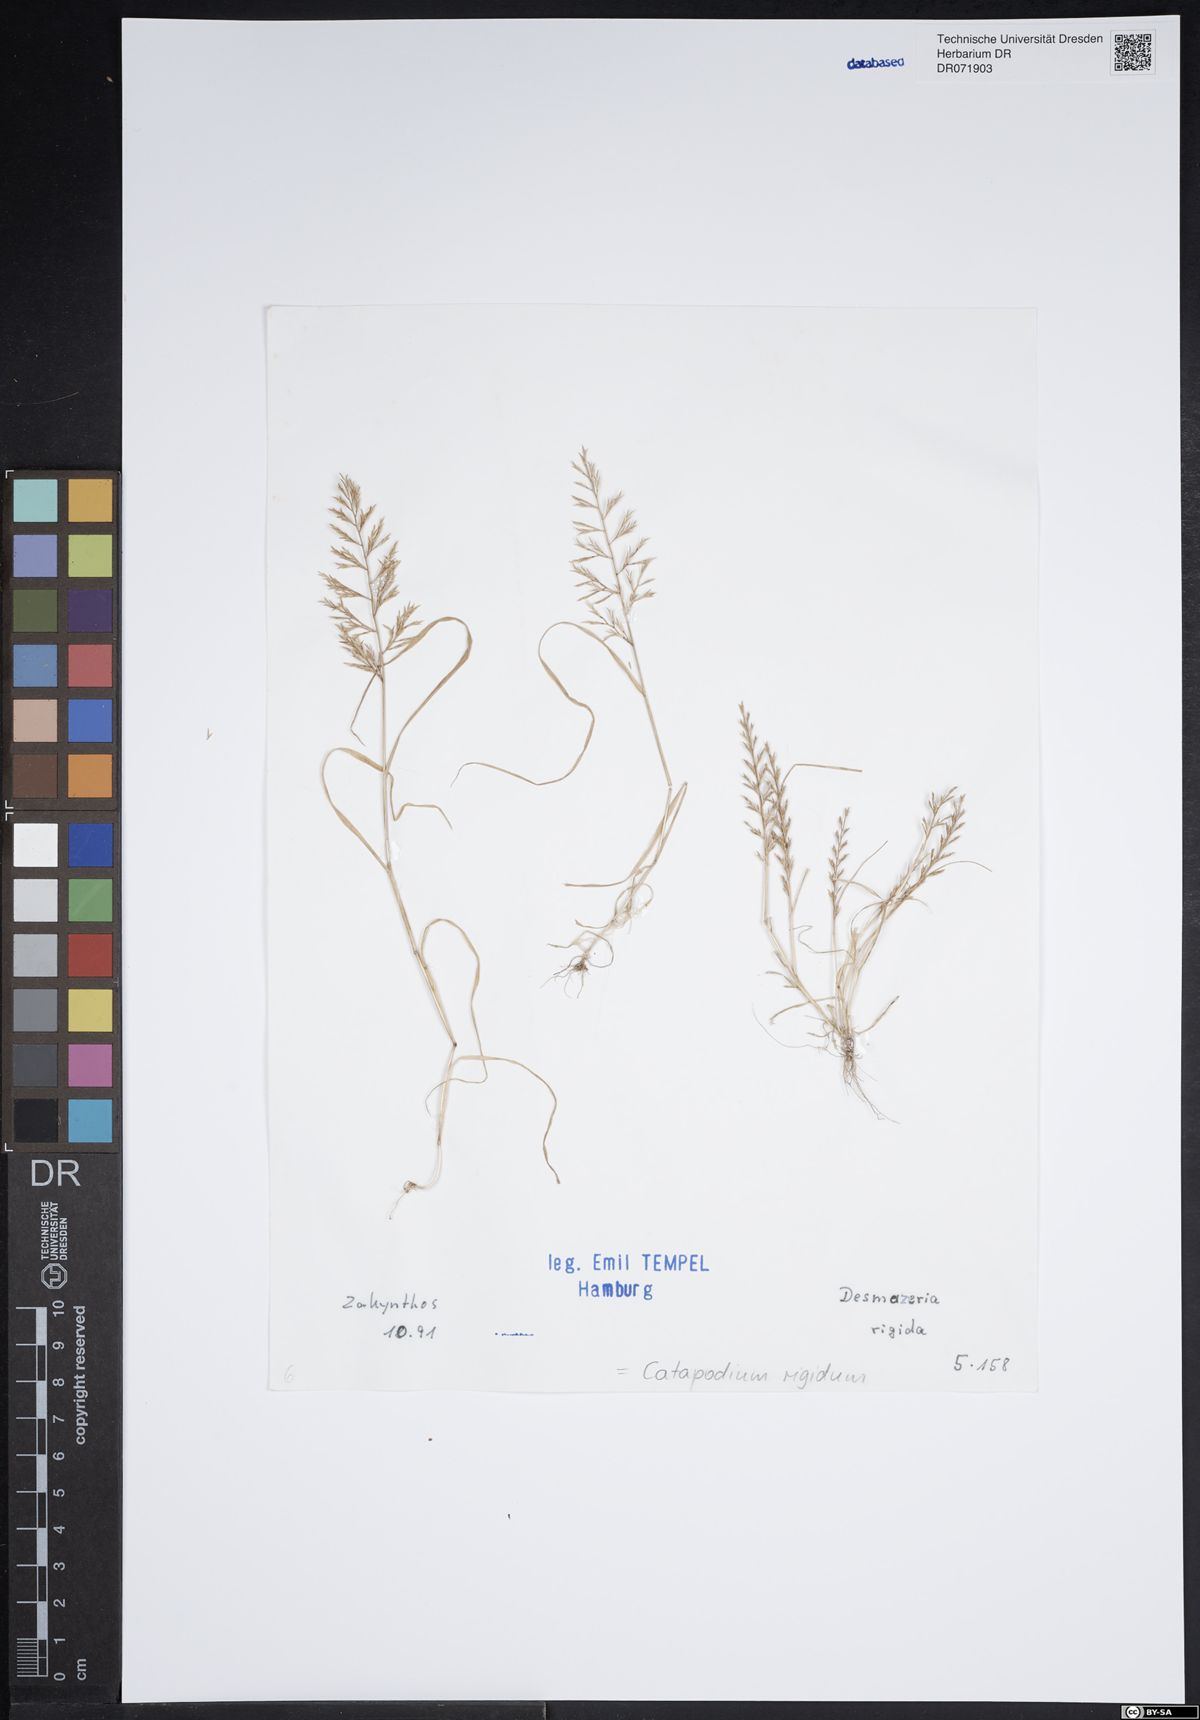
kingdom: Plantae
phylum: Tracheophyta
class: Liliopsida
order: Poales
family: Poaceae
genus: Catapodium
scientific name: Catapodium rigidum
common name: Fern-grass
